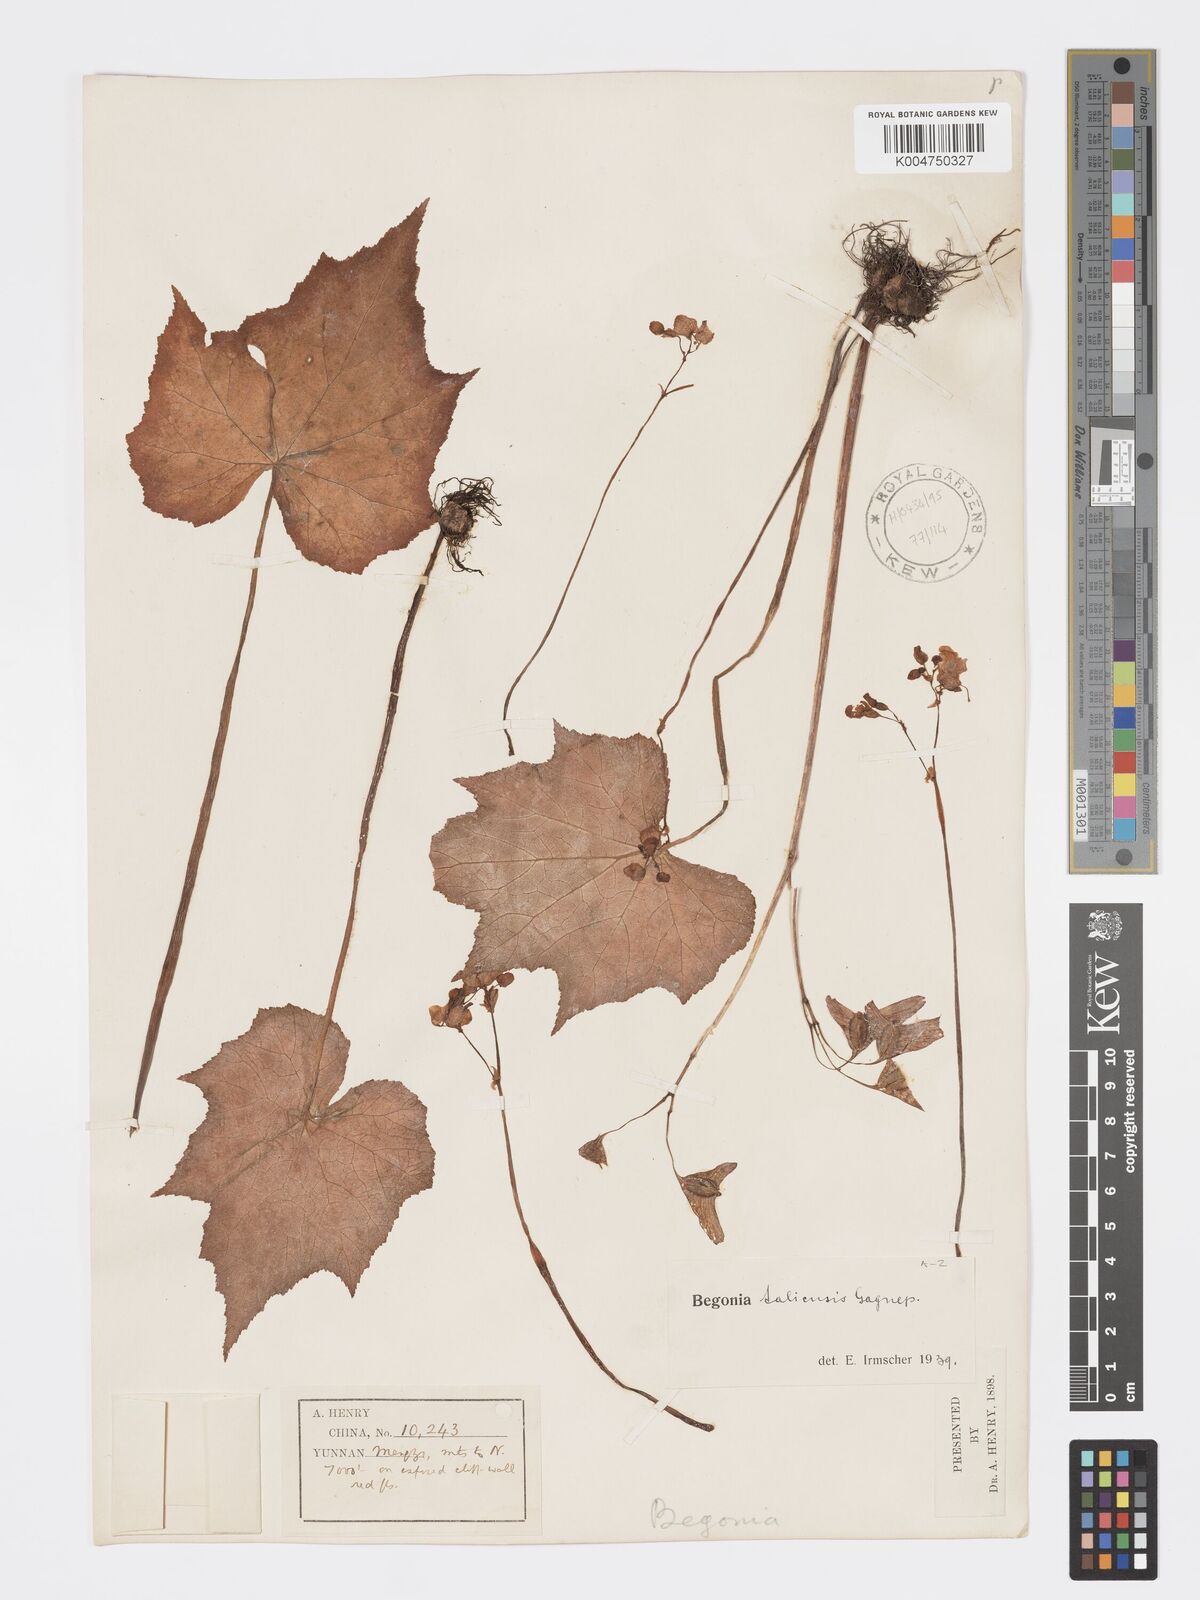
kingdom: Plantae
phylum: Tracheophyta
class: Magnoliopsida
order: Cucurbitales
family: Begoniaceae
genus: Begonia
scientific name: Begonia taliensis
